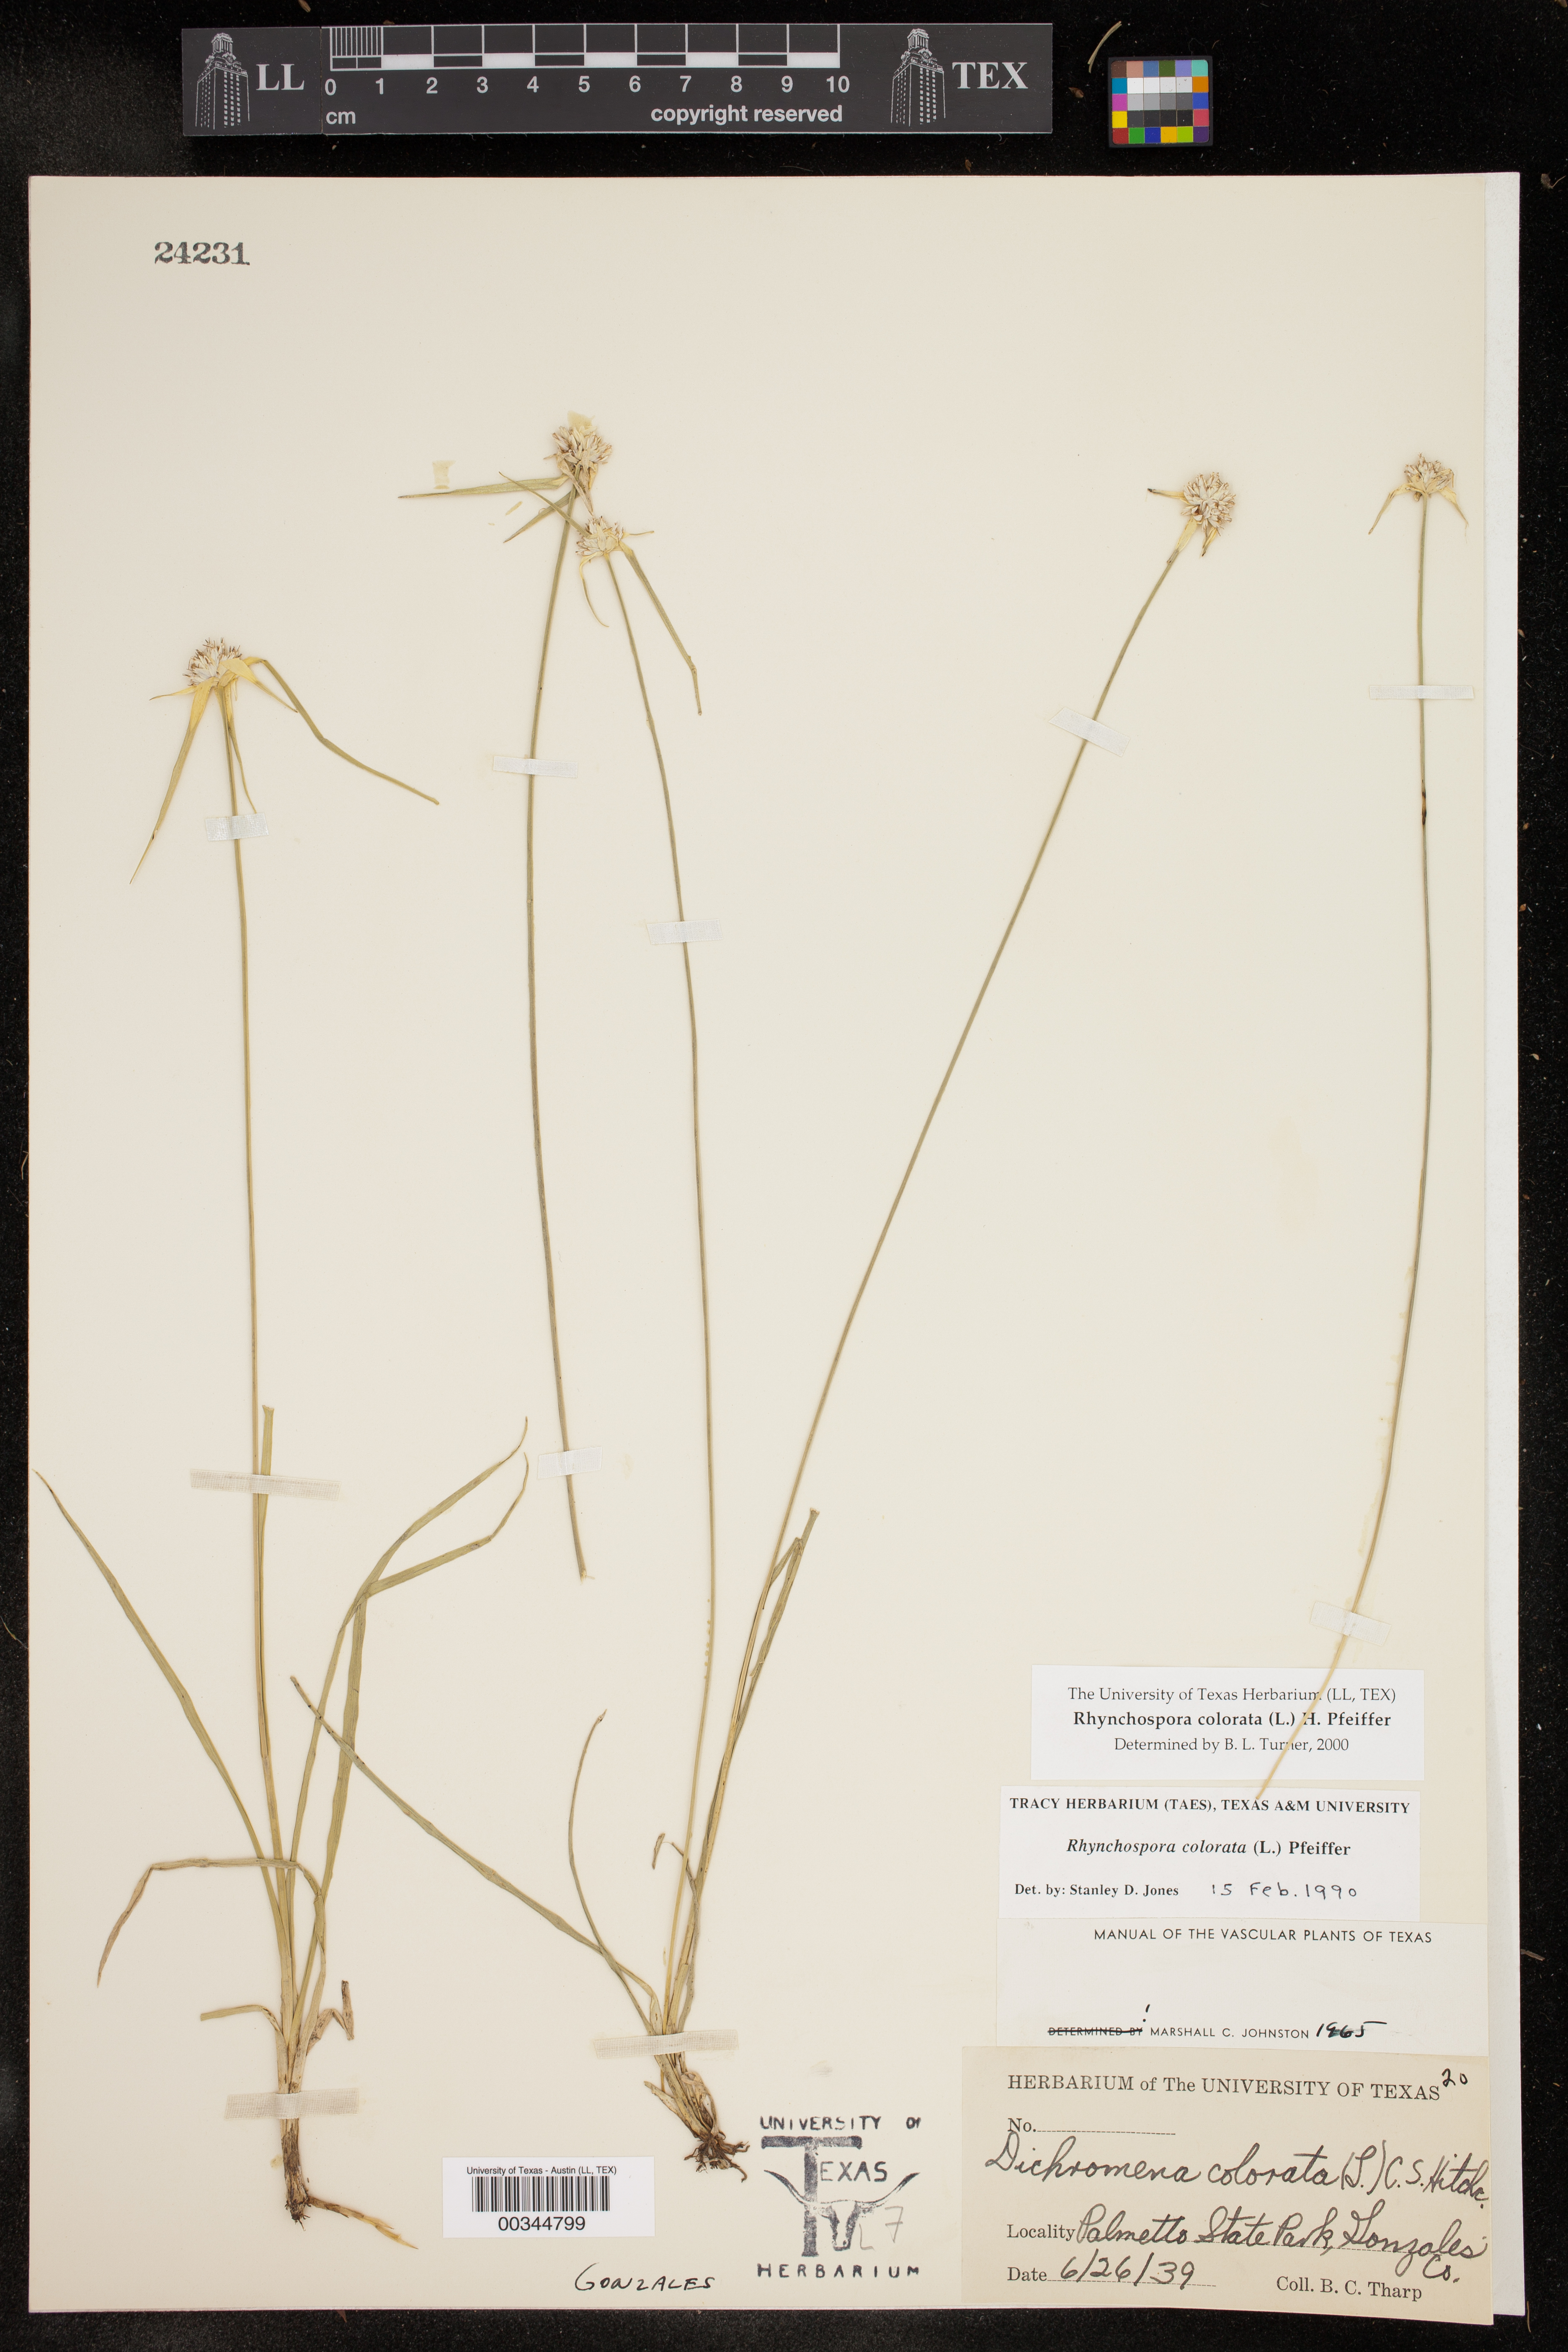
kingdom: Plantae
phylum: Tracheophyta
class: Liliopsida
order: Poales
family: Cyperaceae
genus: Rhynchospora
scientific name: Rhynchospora colorata
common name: Star sedge
